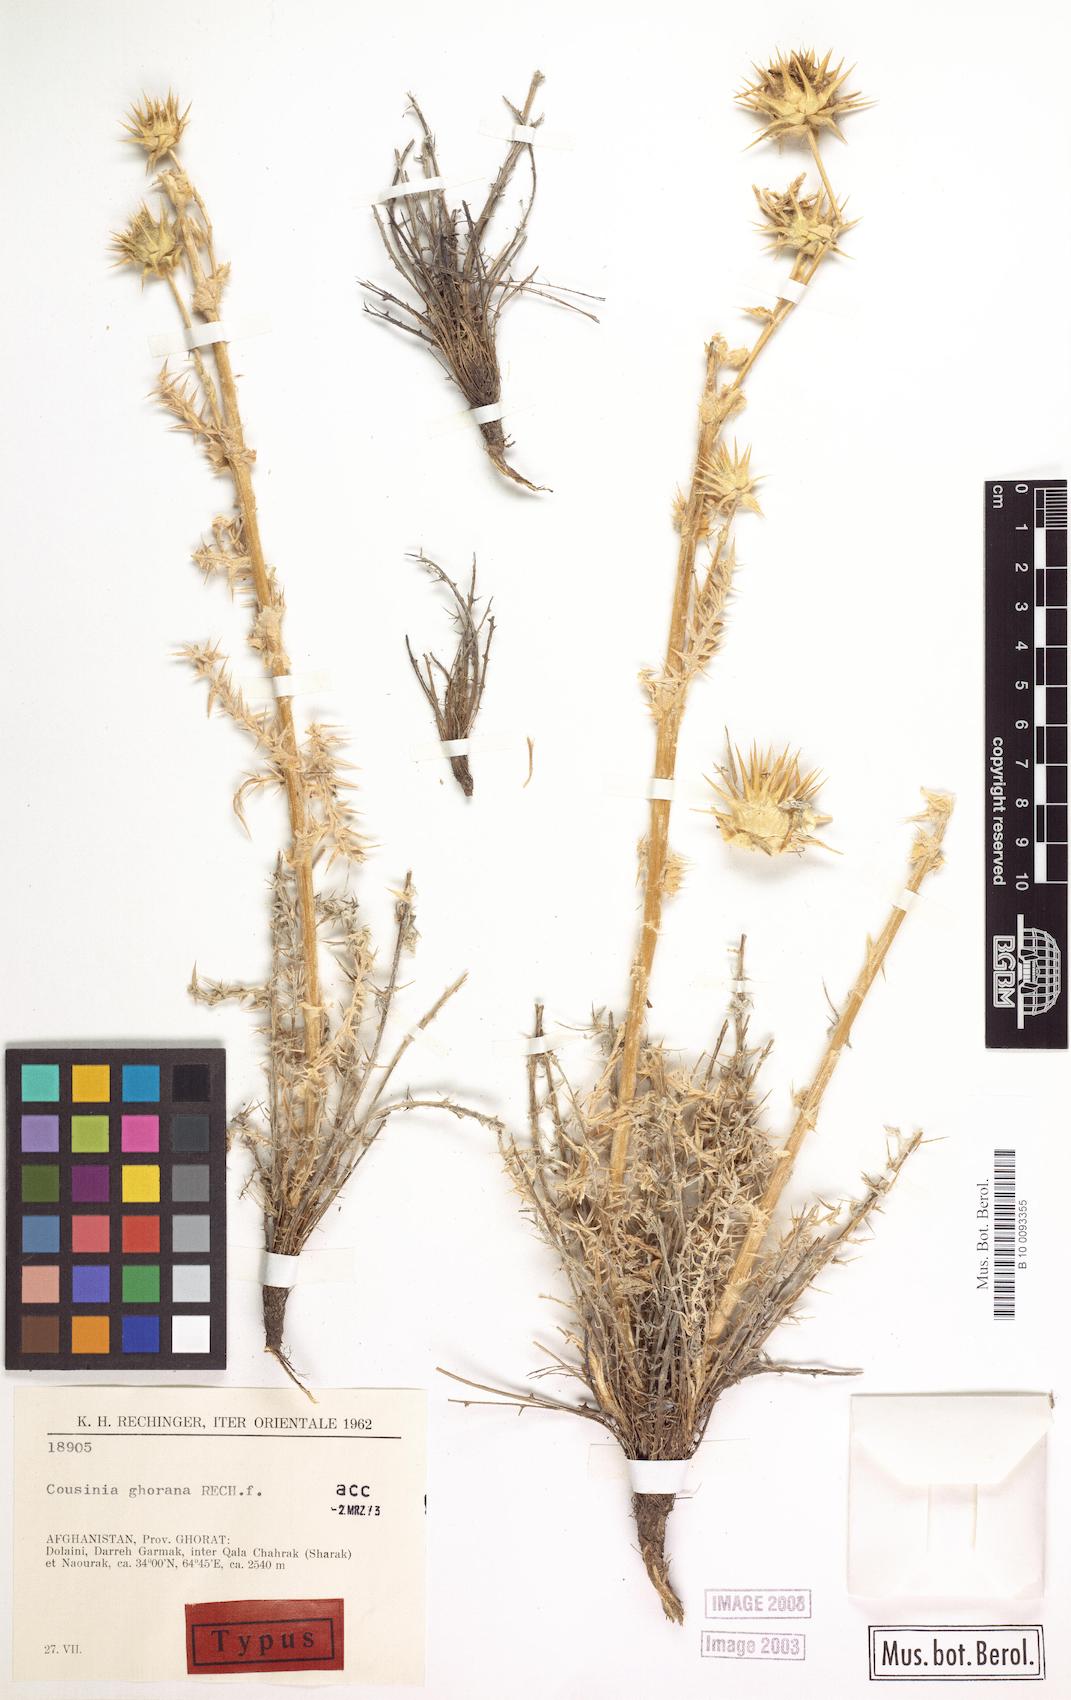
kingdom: Plantae
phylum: Tracheophyta
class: Magnoliopsida
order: Asterales
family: Asteraceae
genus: Cousinia
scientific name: Cousinia ghorana
